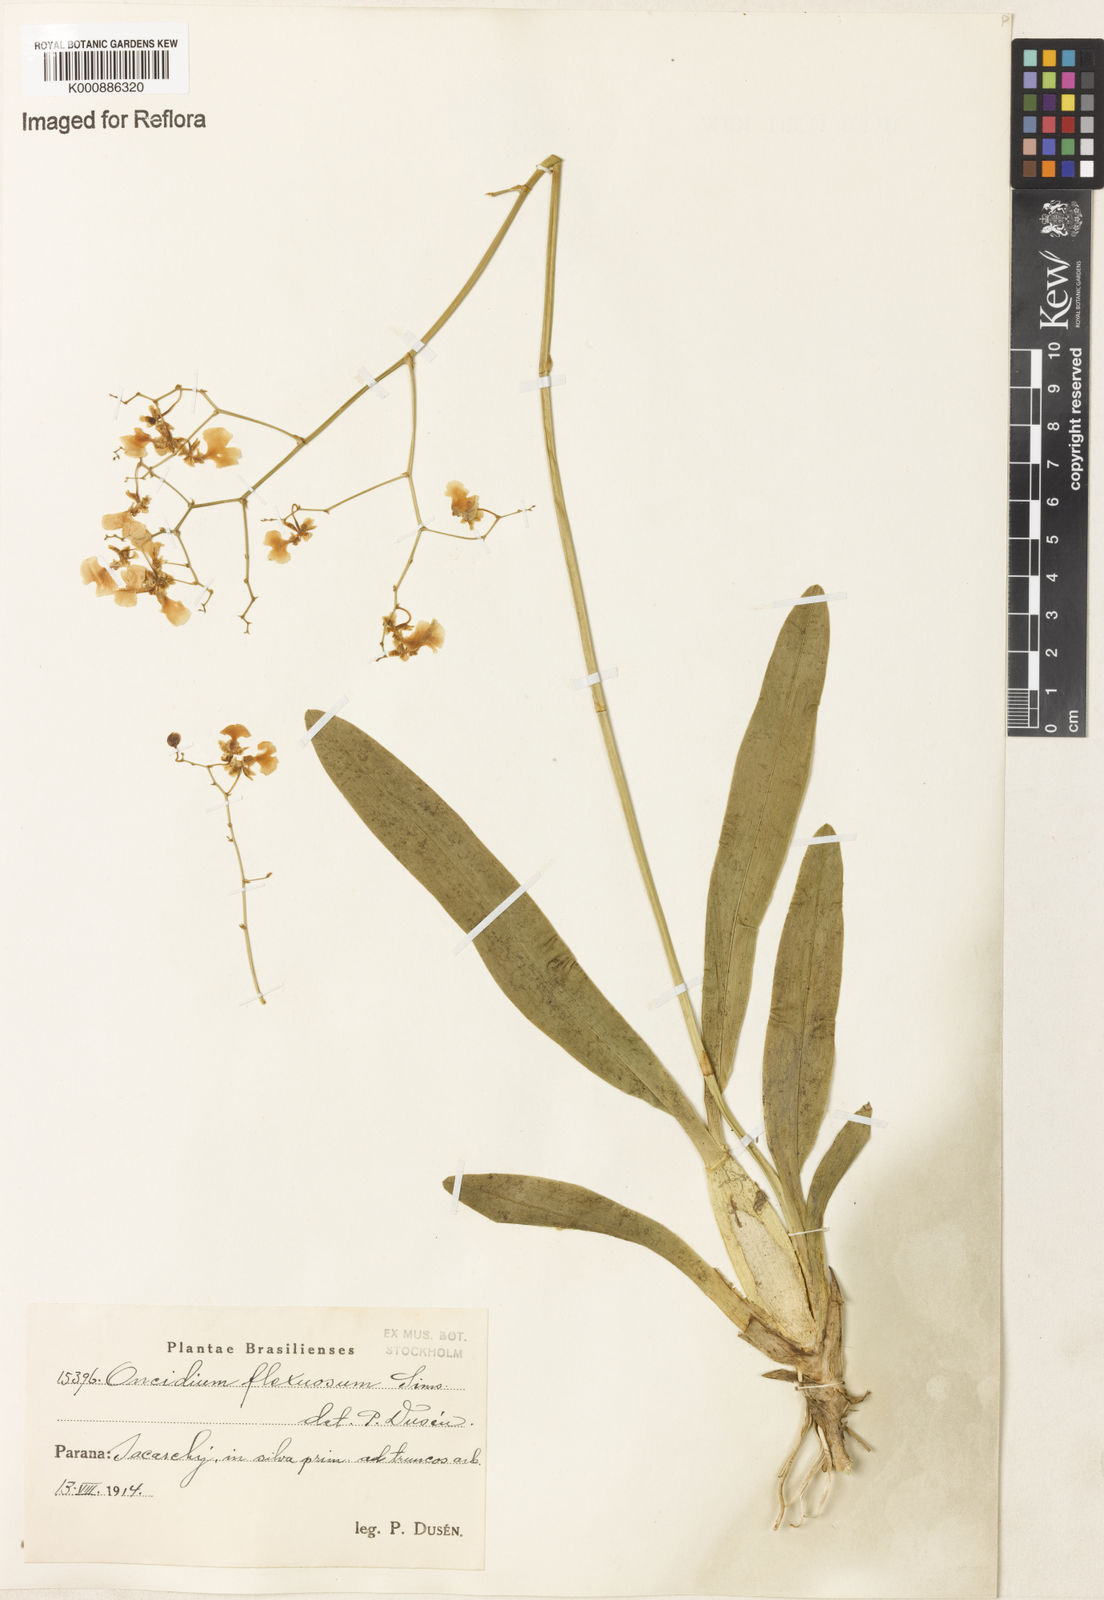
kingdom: Plantae
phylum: Tracheophyta
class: Liliopsida
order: Asparagales
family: Orchidaceae
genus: Gomesa
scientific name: Gomesa flexuosa
